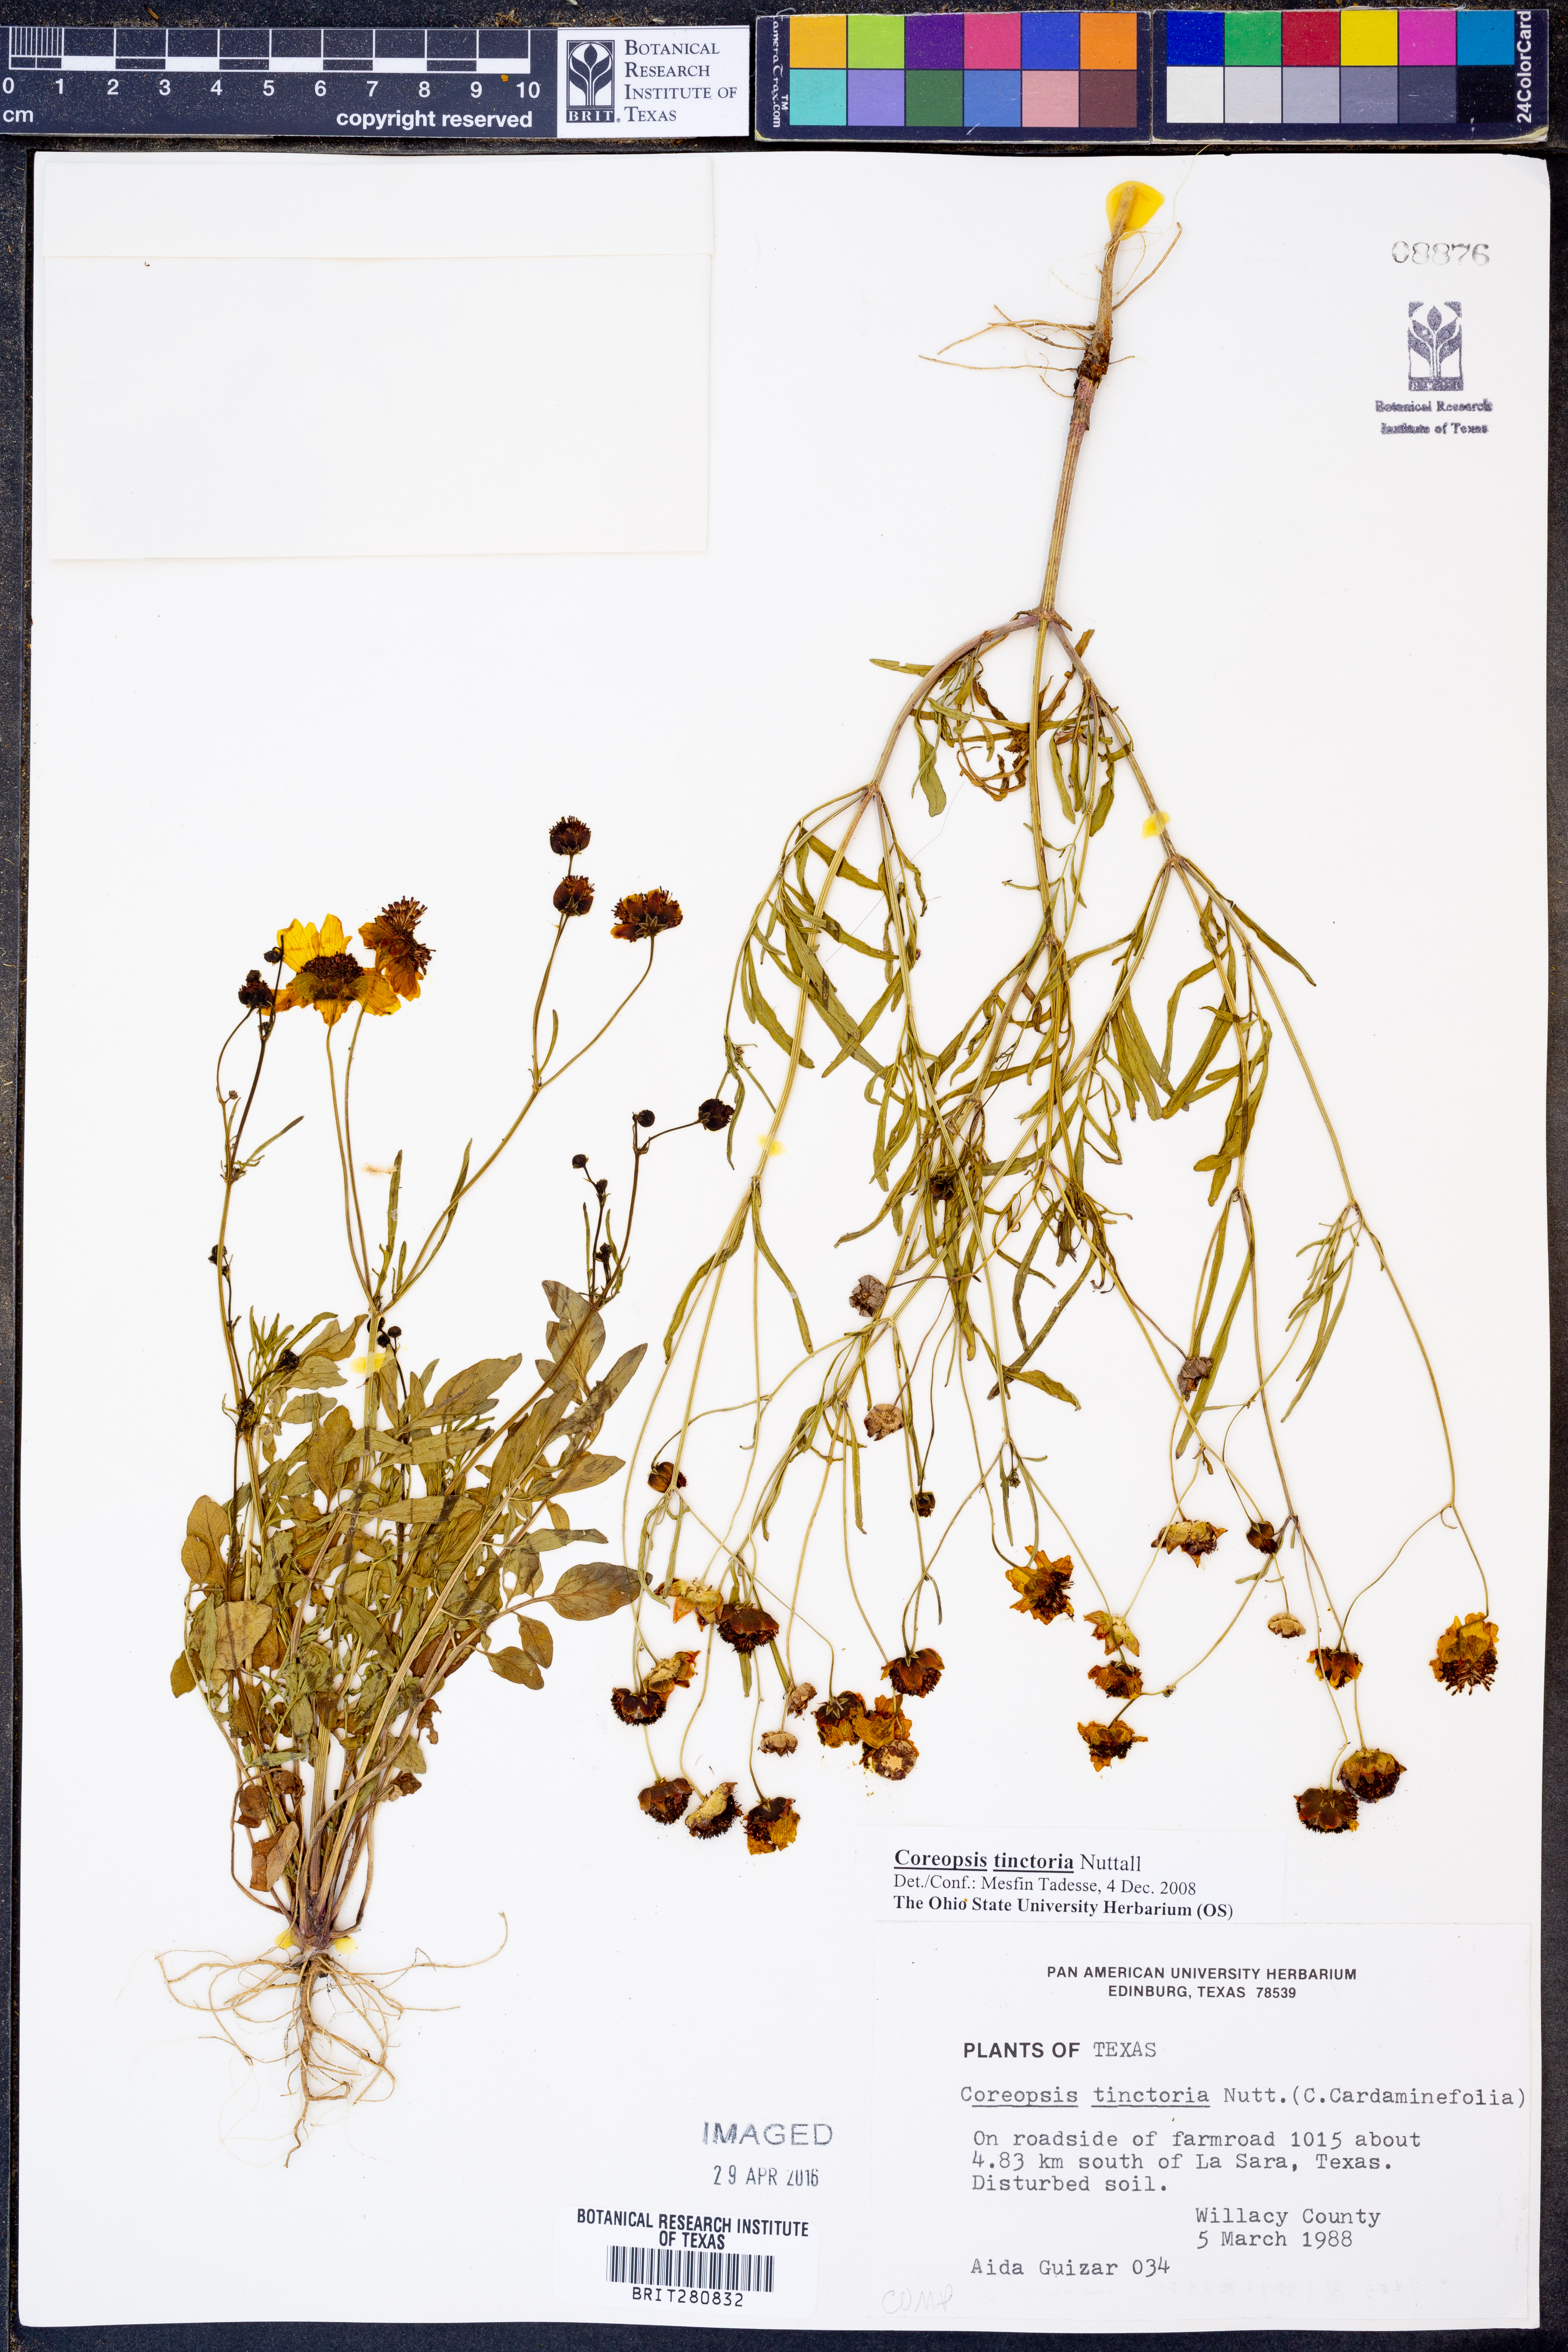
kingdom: Plantae
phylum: Tracheophyta
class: Magnoliopsida
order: Asterales
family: Asteraceae
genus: Coreopsis
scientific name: Coreopsis tinctoria
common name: Garden tickseed
